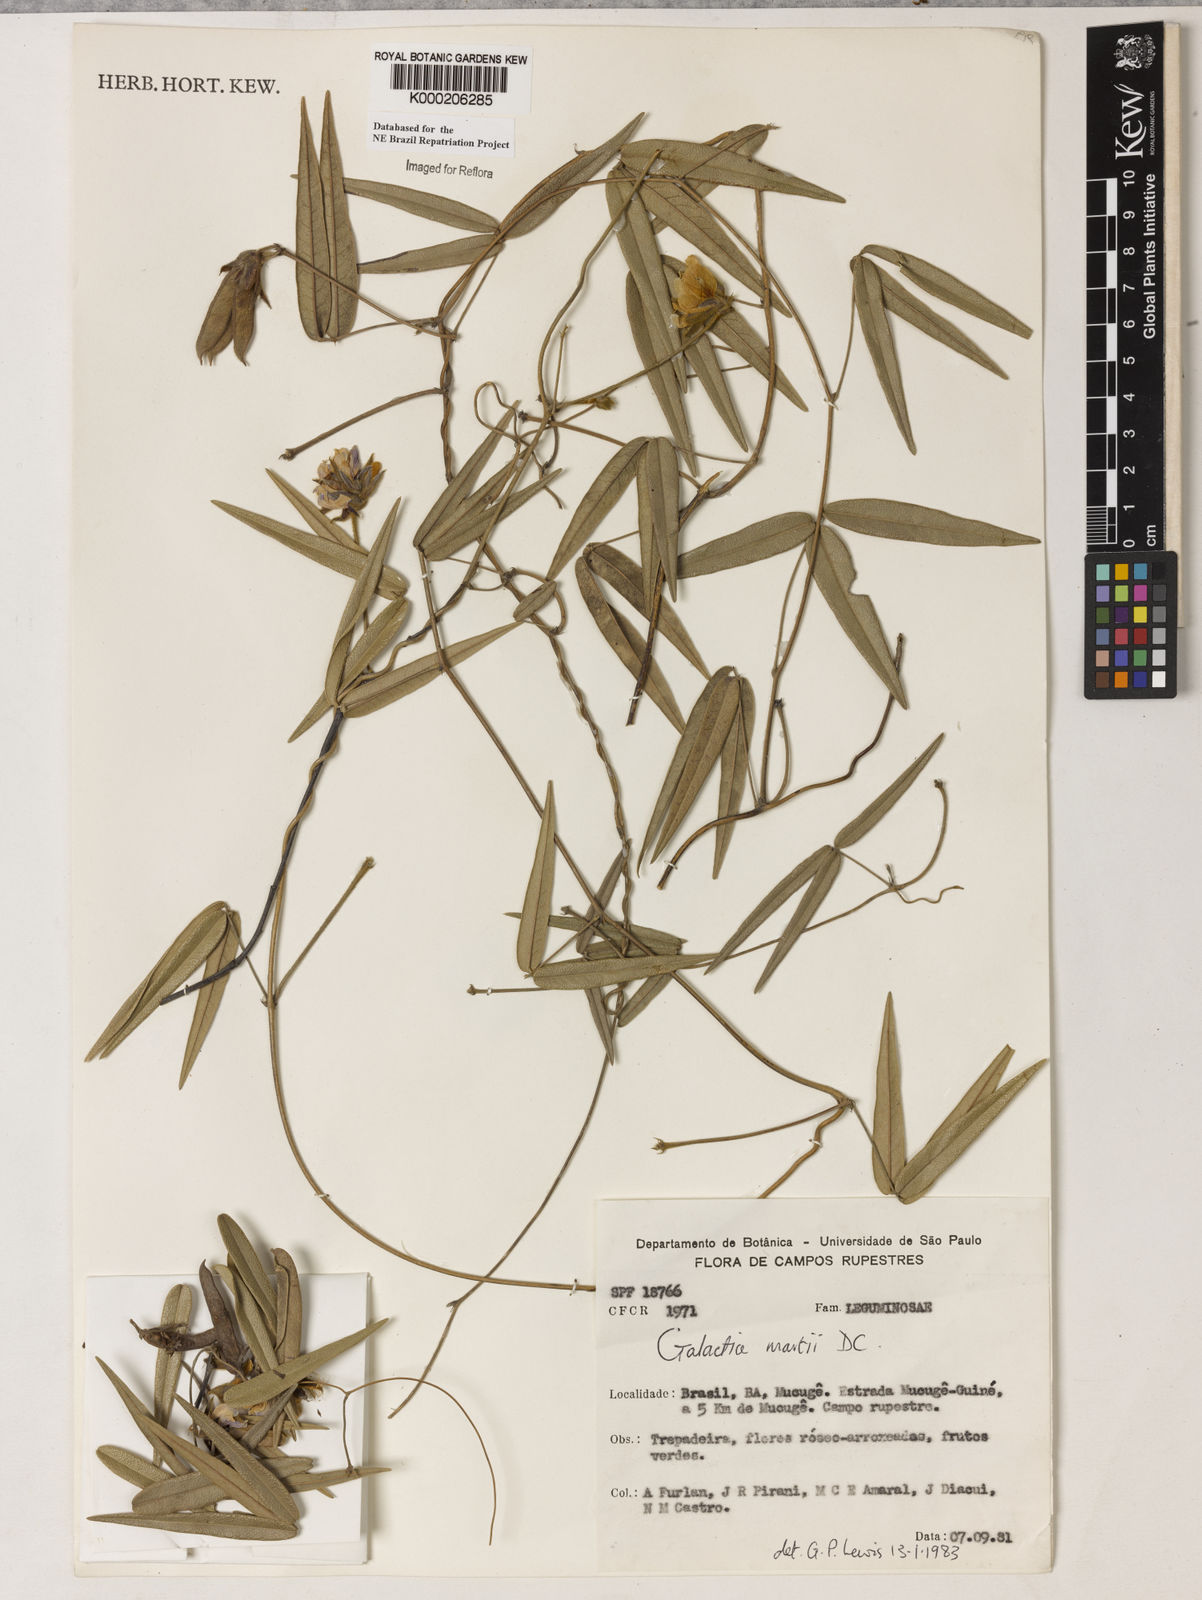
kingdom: Plantae
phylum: Tracheophyta
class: Magnoliopsida
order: Fabales
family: Fabaceae
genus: Betencourtia
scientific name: Betencourtia martii
